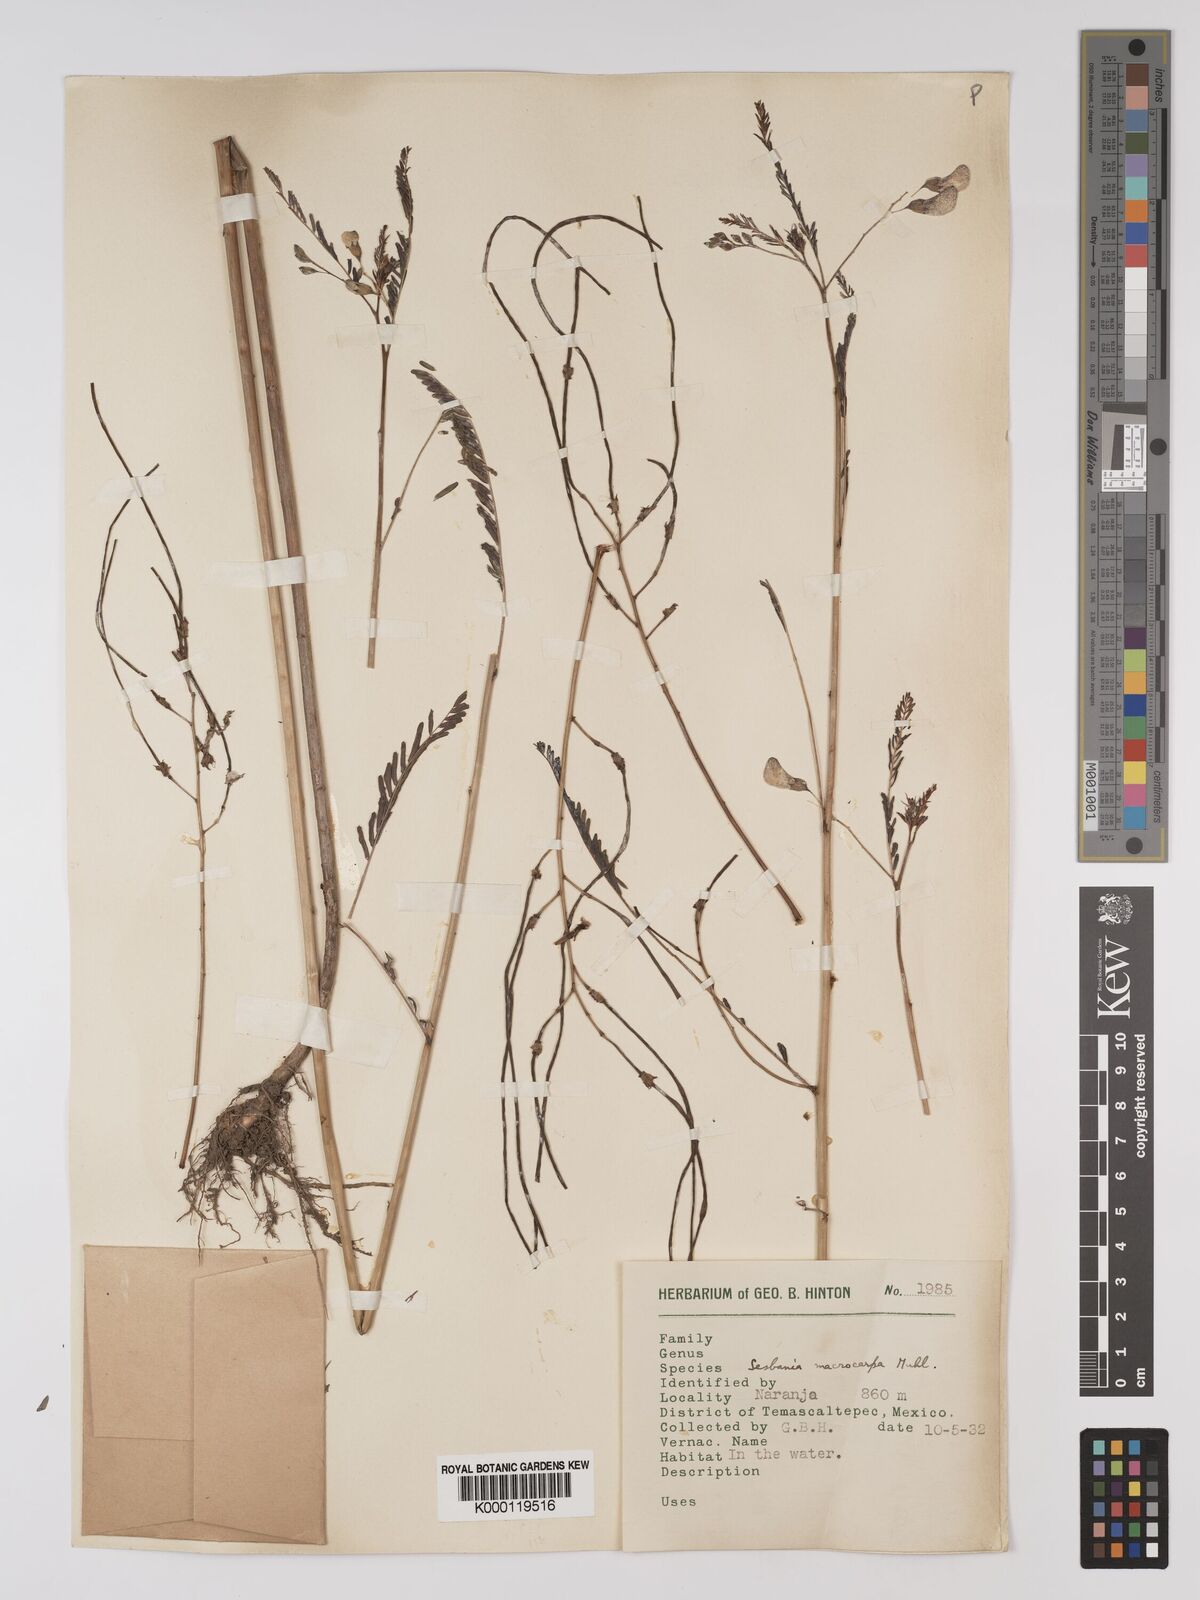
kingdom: Plantae
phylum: Tracheophyta
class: Magnoliopsida
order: Fabales
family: Fabaceae
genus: Sesbania
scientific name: Sesbania vesicaria
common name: Bagpod
